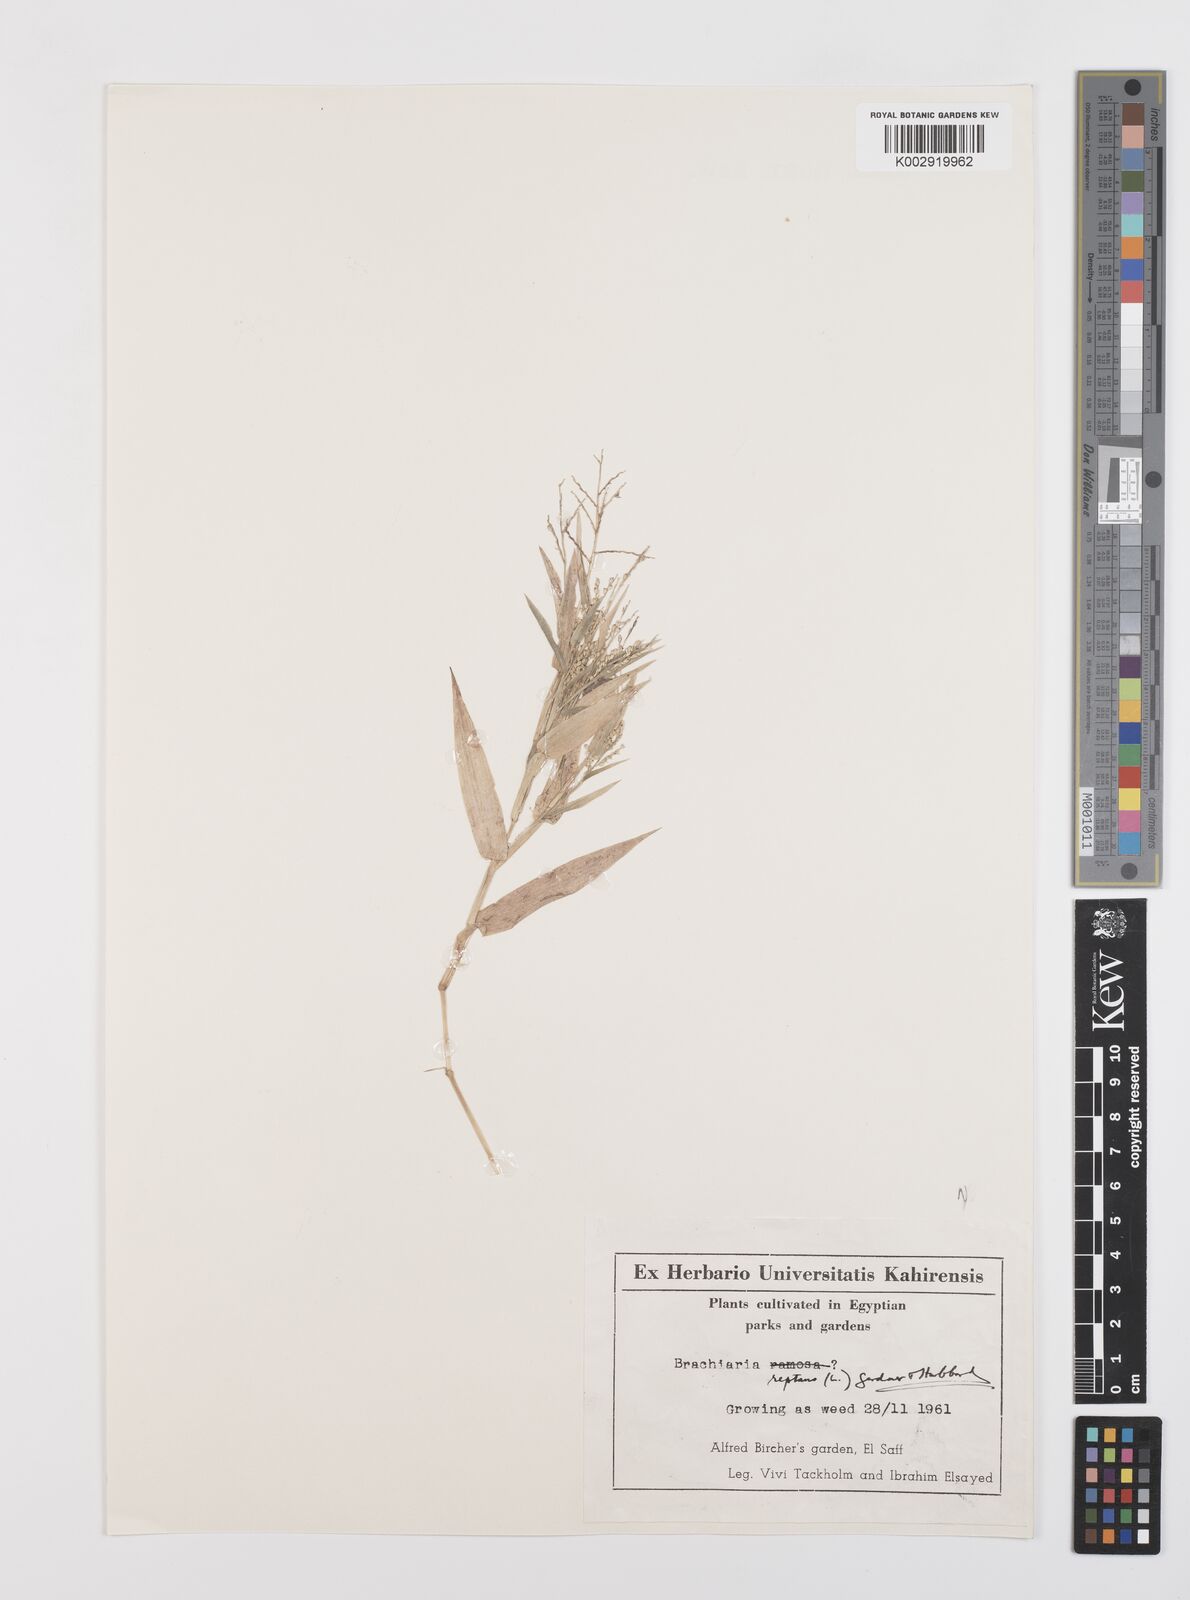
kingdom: Plantae
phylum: Tracheophyta
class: Liliopsida
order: Poales
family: Poaceae
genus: Urochloa
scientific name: Urochloa reptans
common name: Sprawling signalgrass
